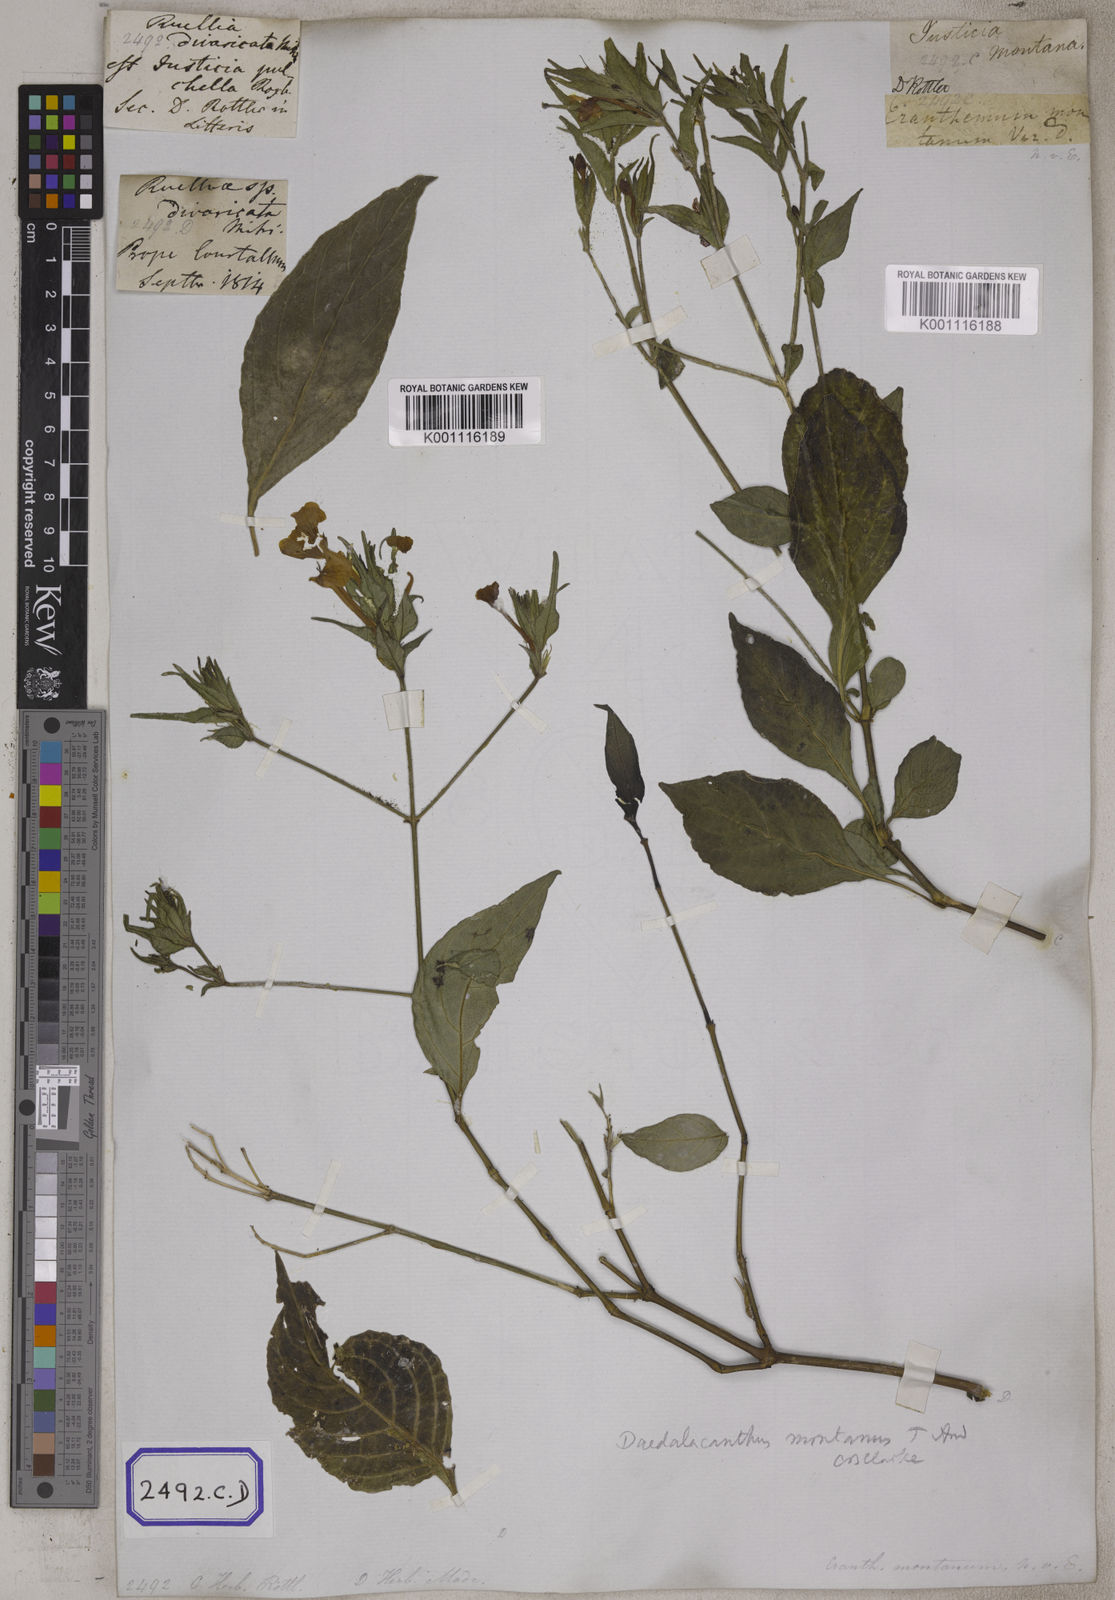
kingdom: Plantae
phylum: Tracheophyta
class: Magnoliopsida
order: Lamiales
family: Acanthaceae
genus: Eranthemum
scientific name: Eranthemum
